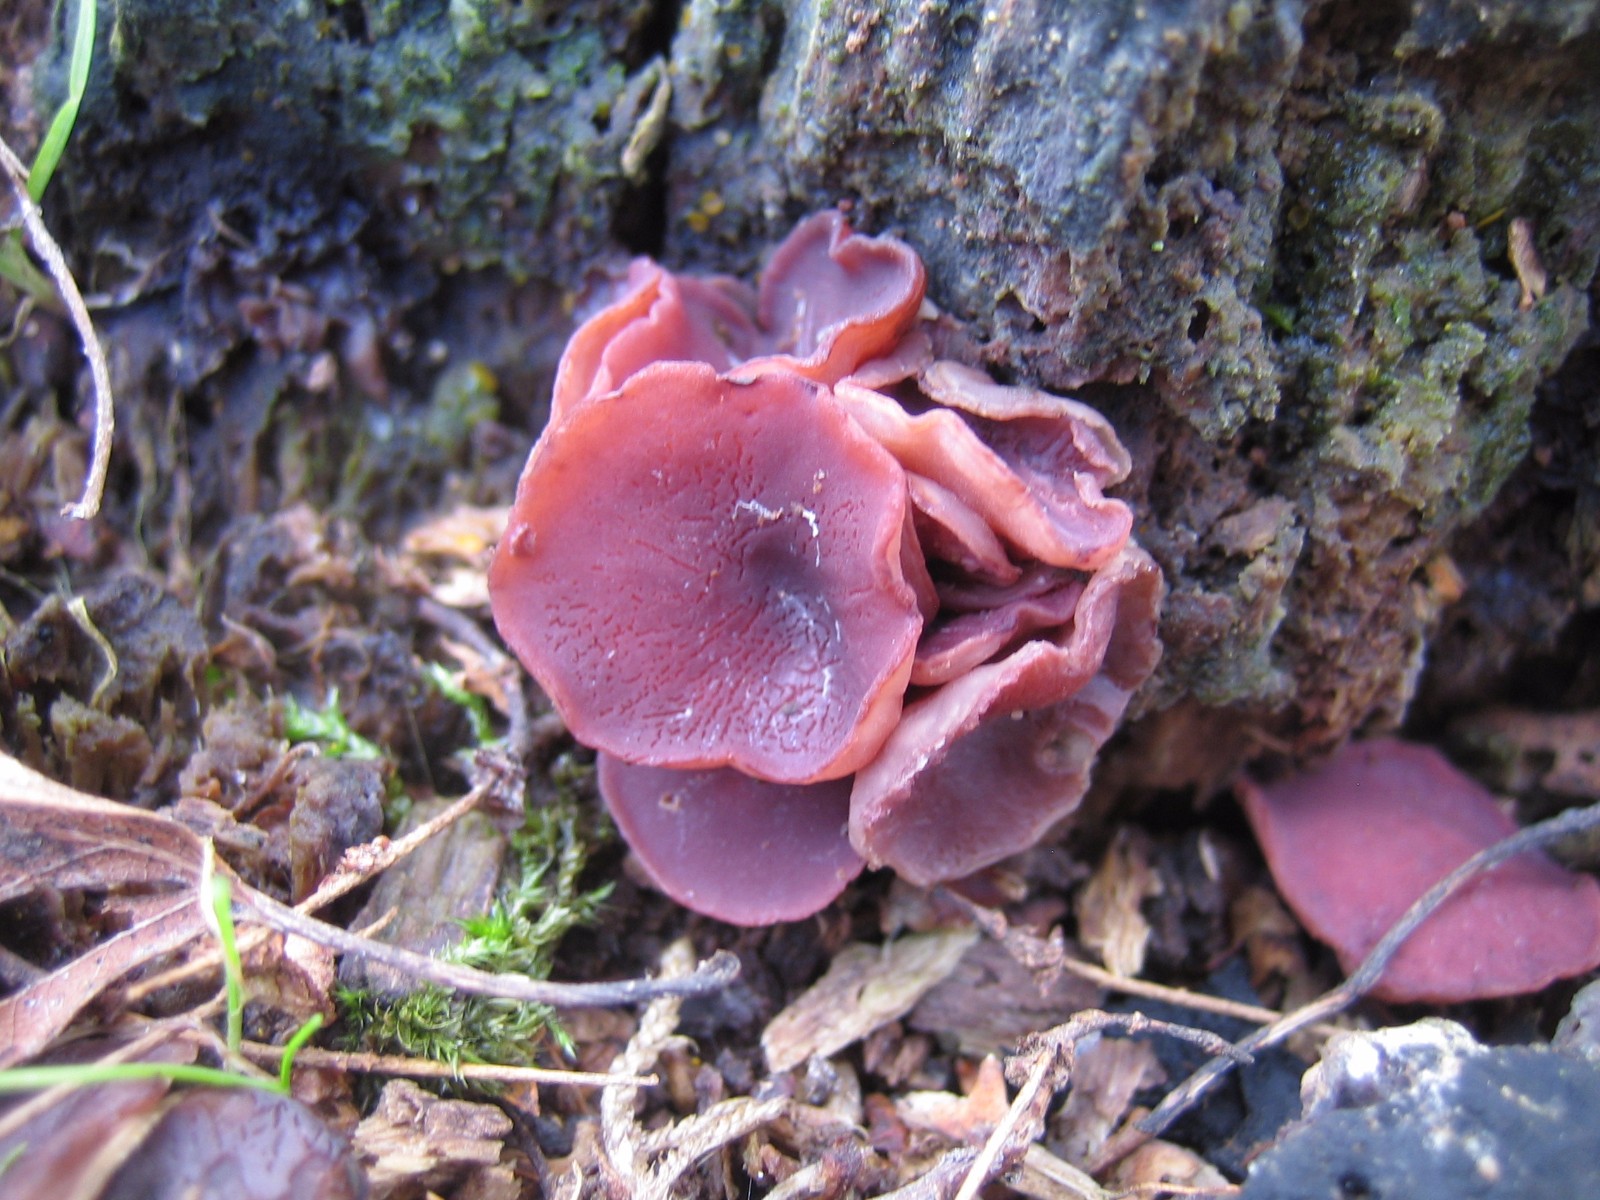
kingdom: Fungi
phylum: Ascomycota
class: Leotiomycetes
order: Helotiales
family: Gelatinodiscaceae
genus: Ascocoryne
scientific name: Ascocoryne cylichnium
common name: stor sejskive
